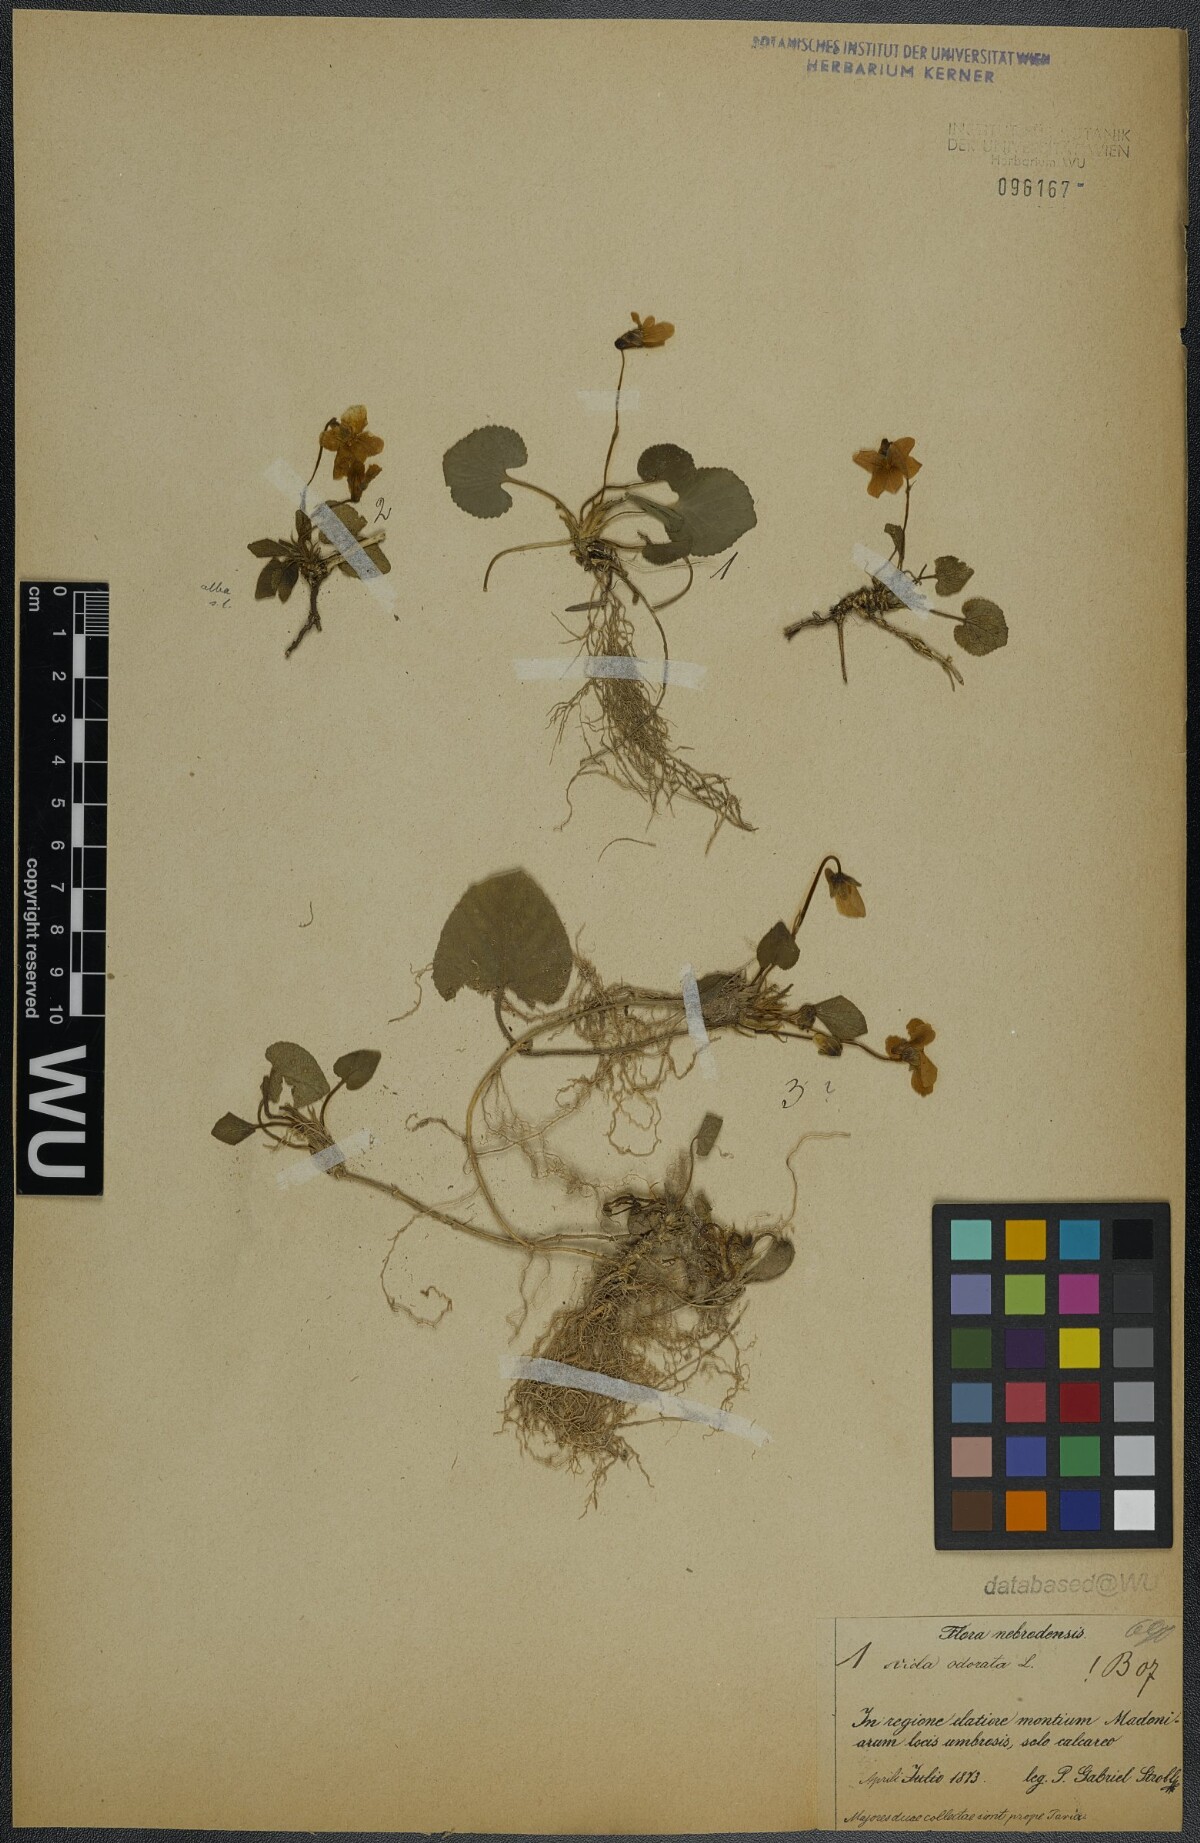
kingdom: Plantae
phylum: Tracheophyta
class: Magnoliopsida
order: Malpighiales
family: Violaceae
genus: Viola
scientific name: Viola odorata
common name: Sweet violet
